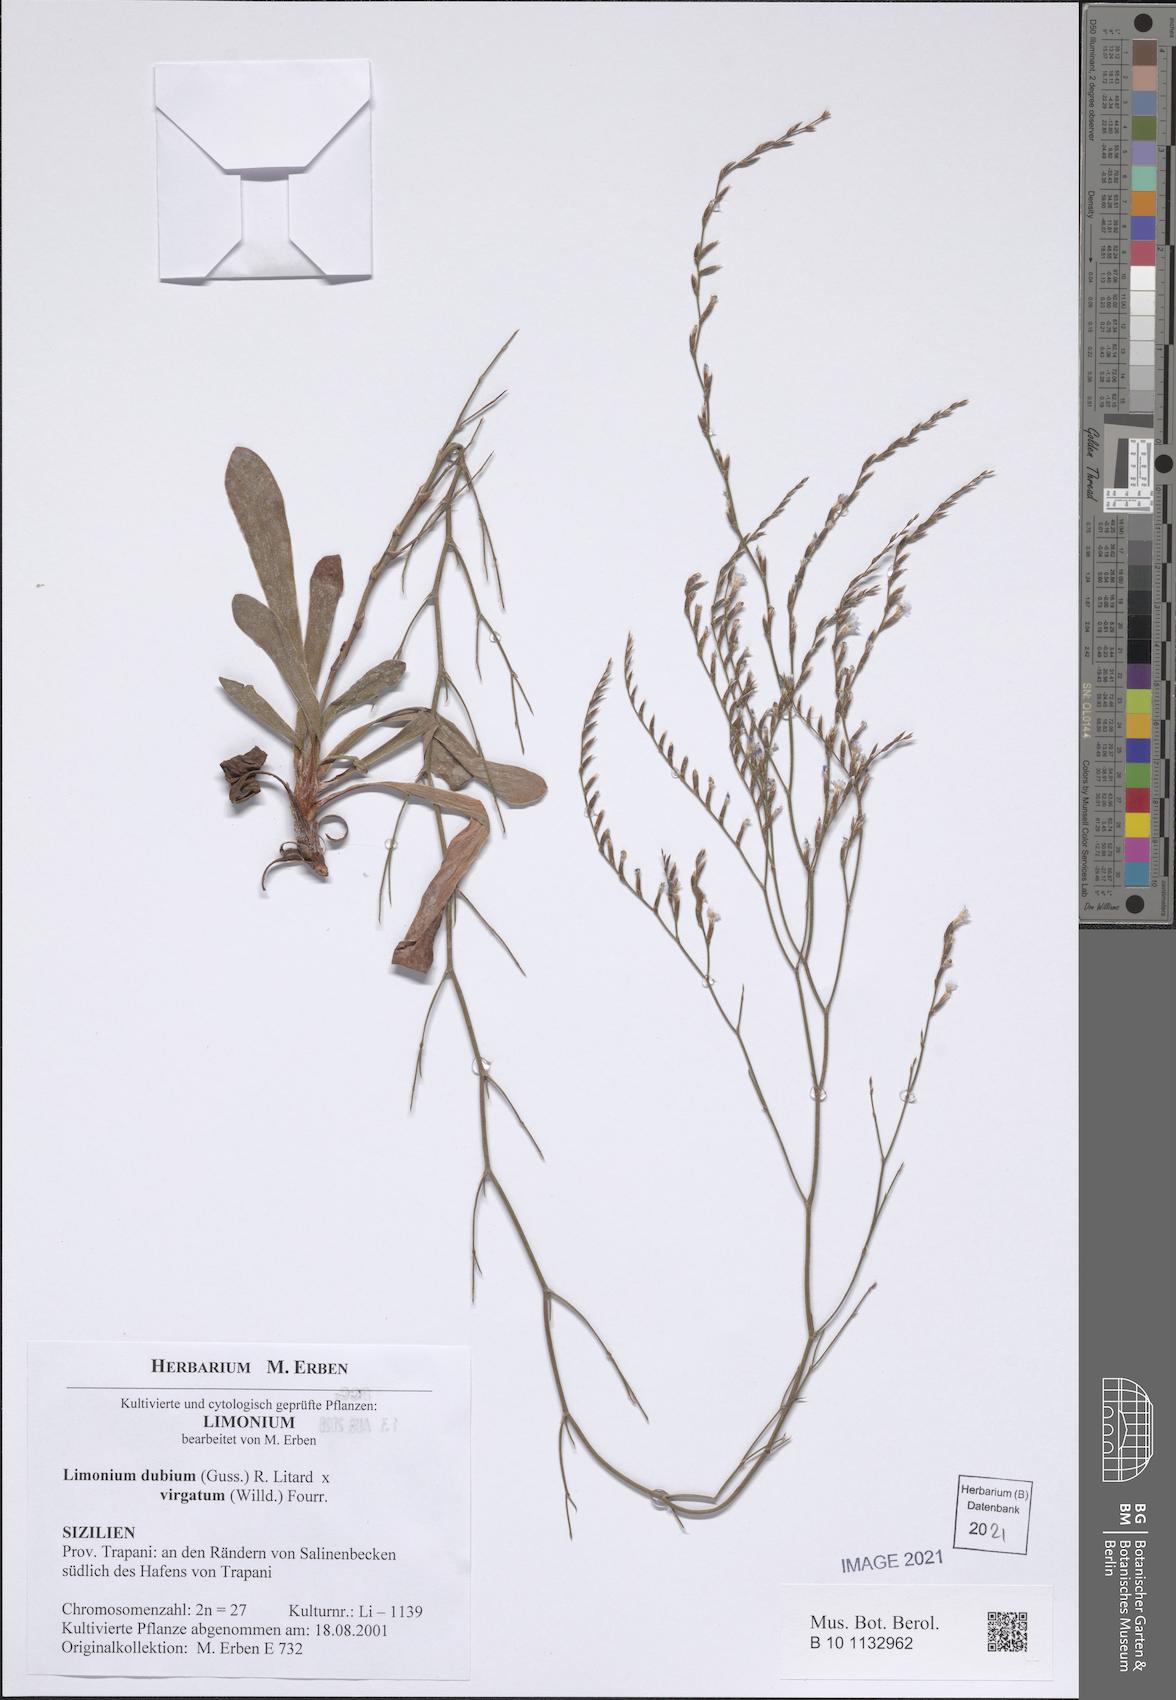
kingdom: Plantae
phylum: Tracheophyta
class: Magnoliopsida
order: Caryophyllales
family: Plumbaginaceae
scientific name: Plumbaginaceae
